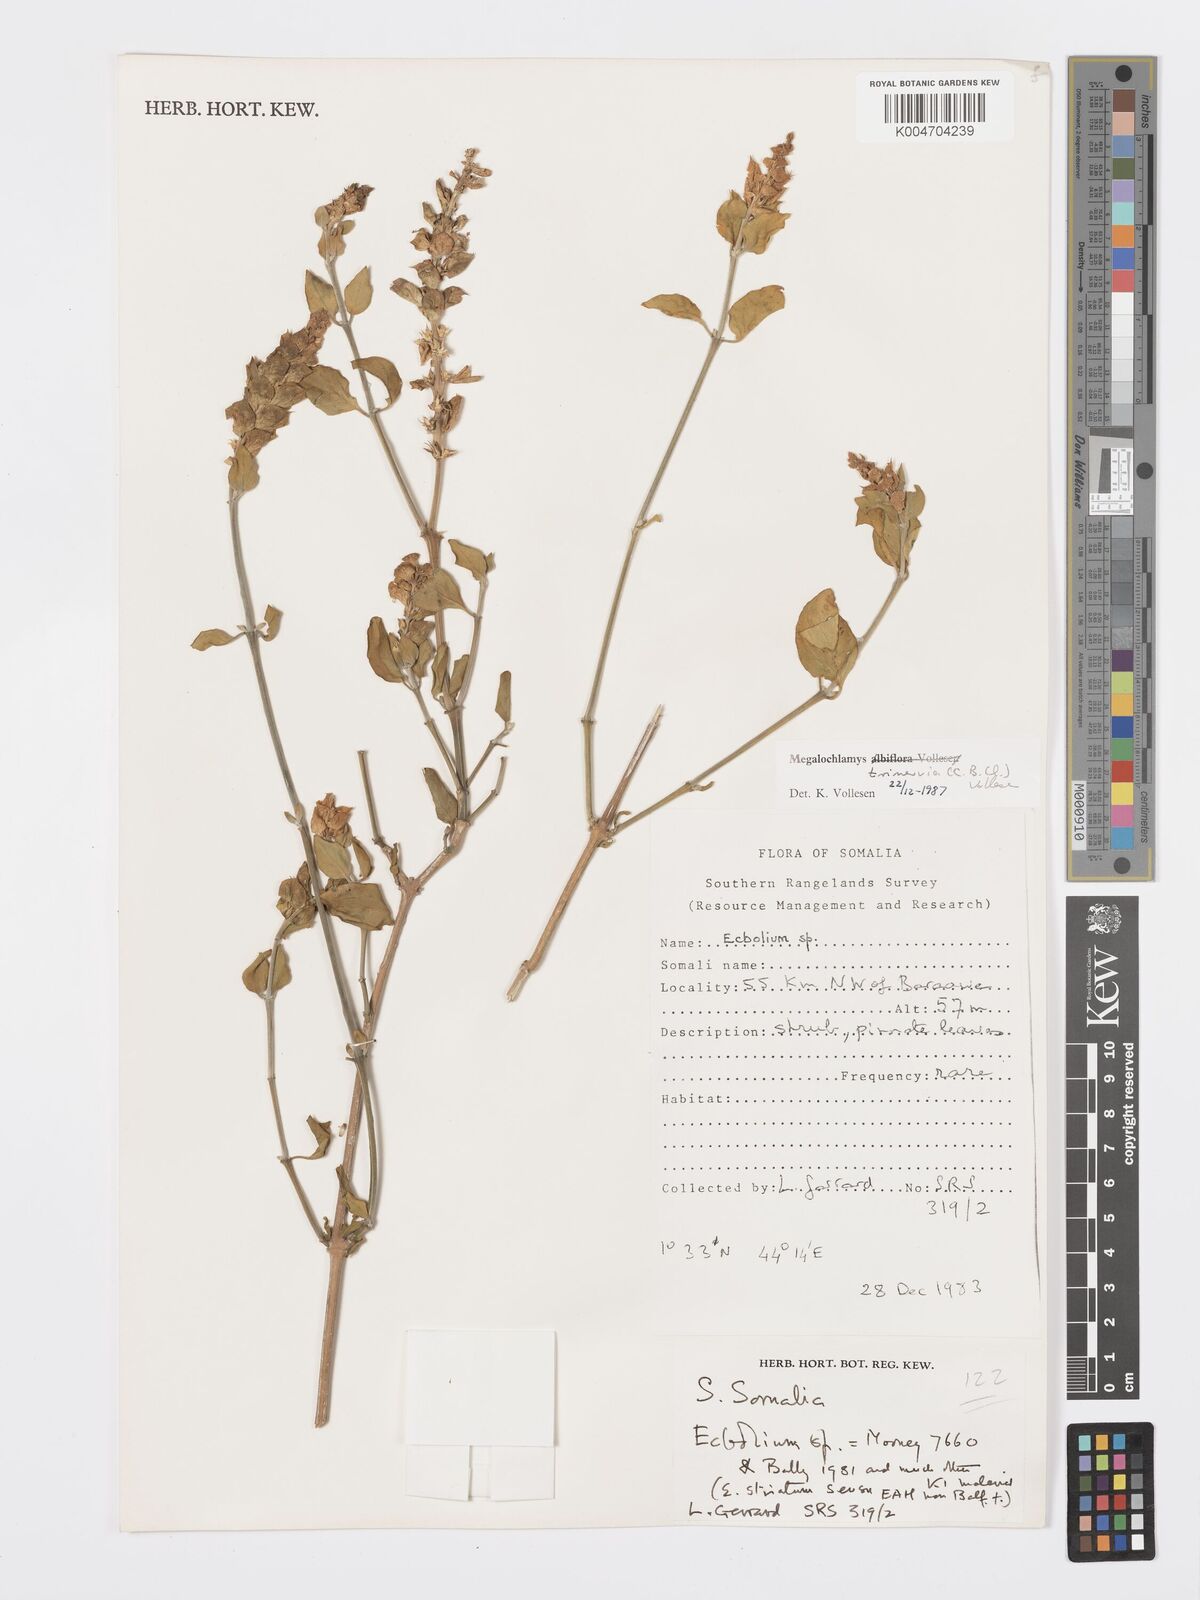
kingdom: Plantae
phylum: Tracheophyta
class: Magnoliopsida
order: Lamiales
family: Acanthaceae
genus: Megalochlamys
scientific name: Megalochlamys trinervia
